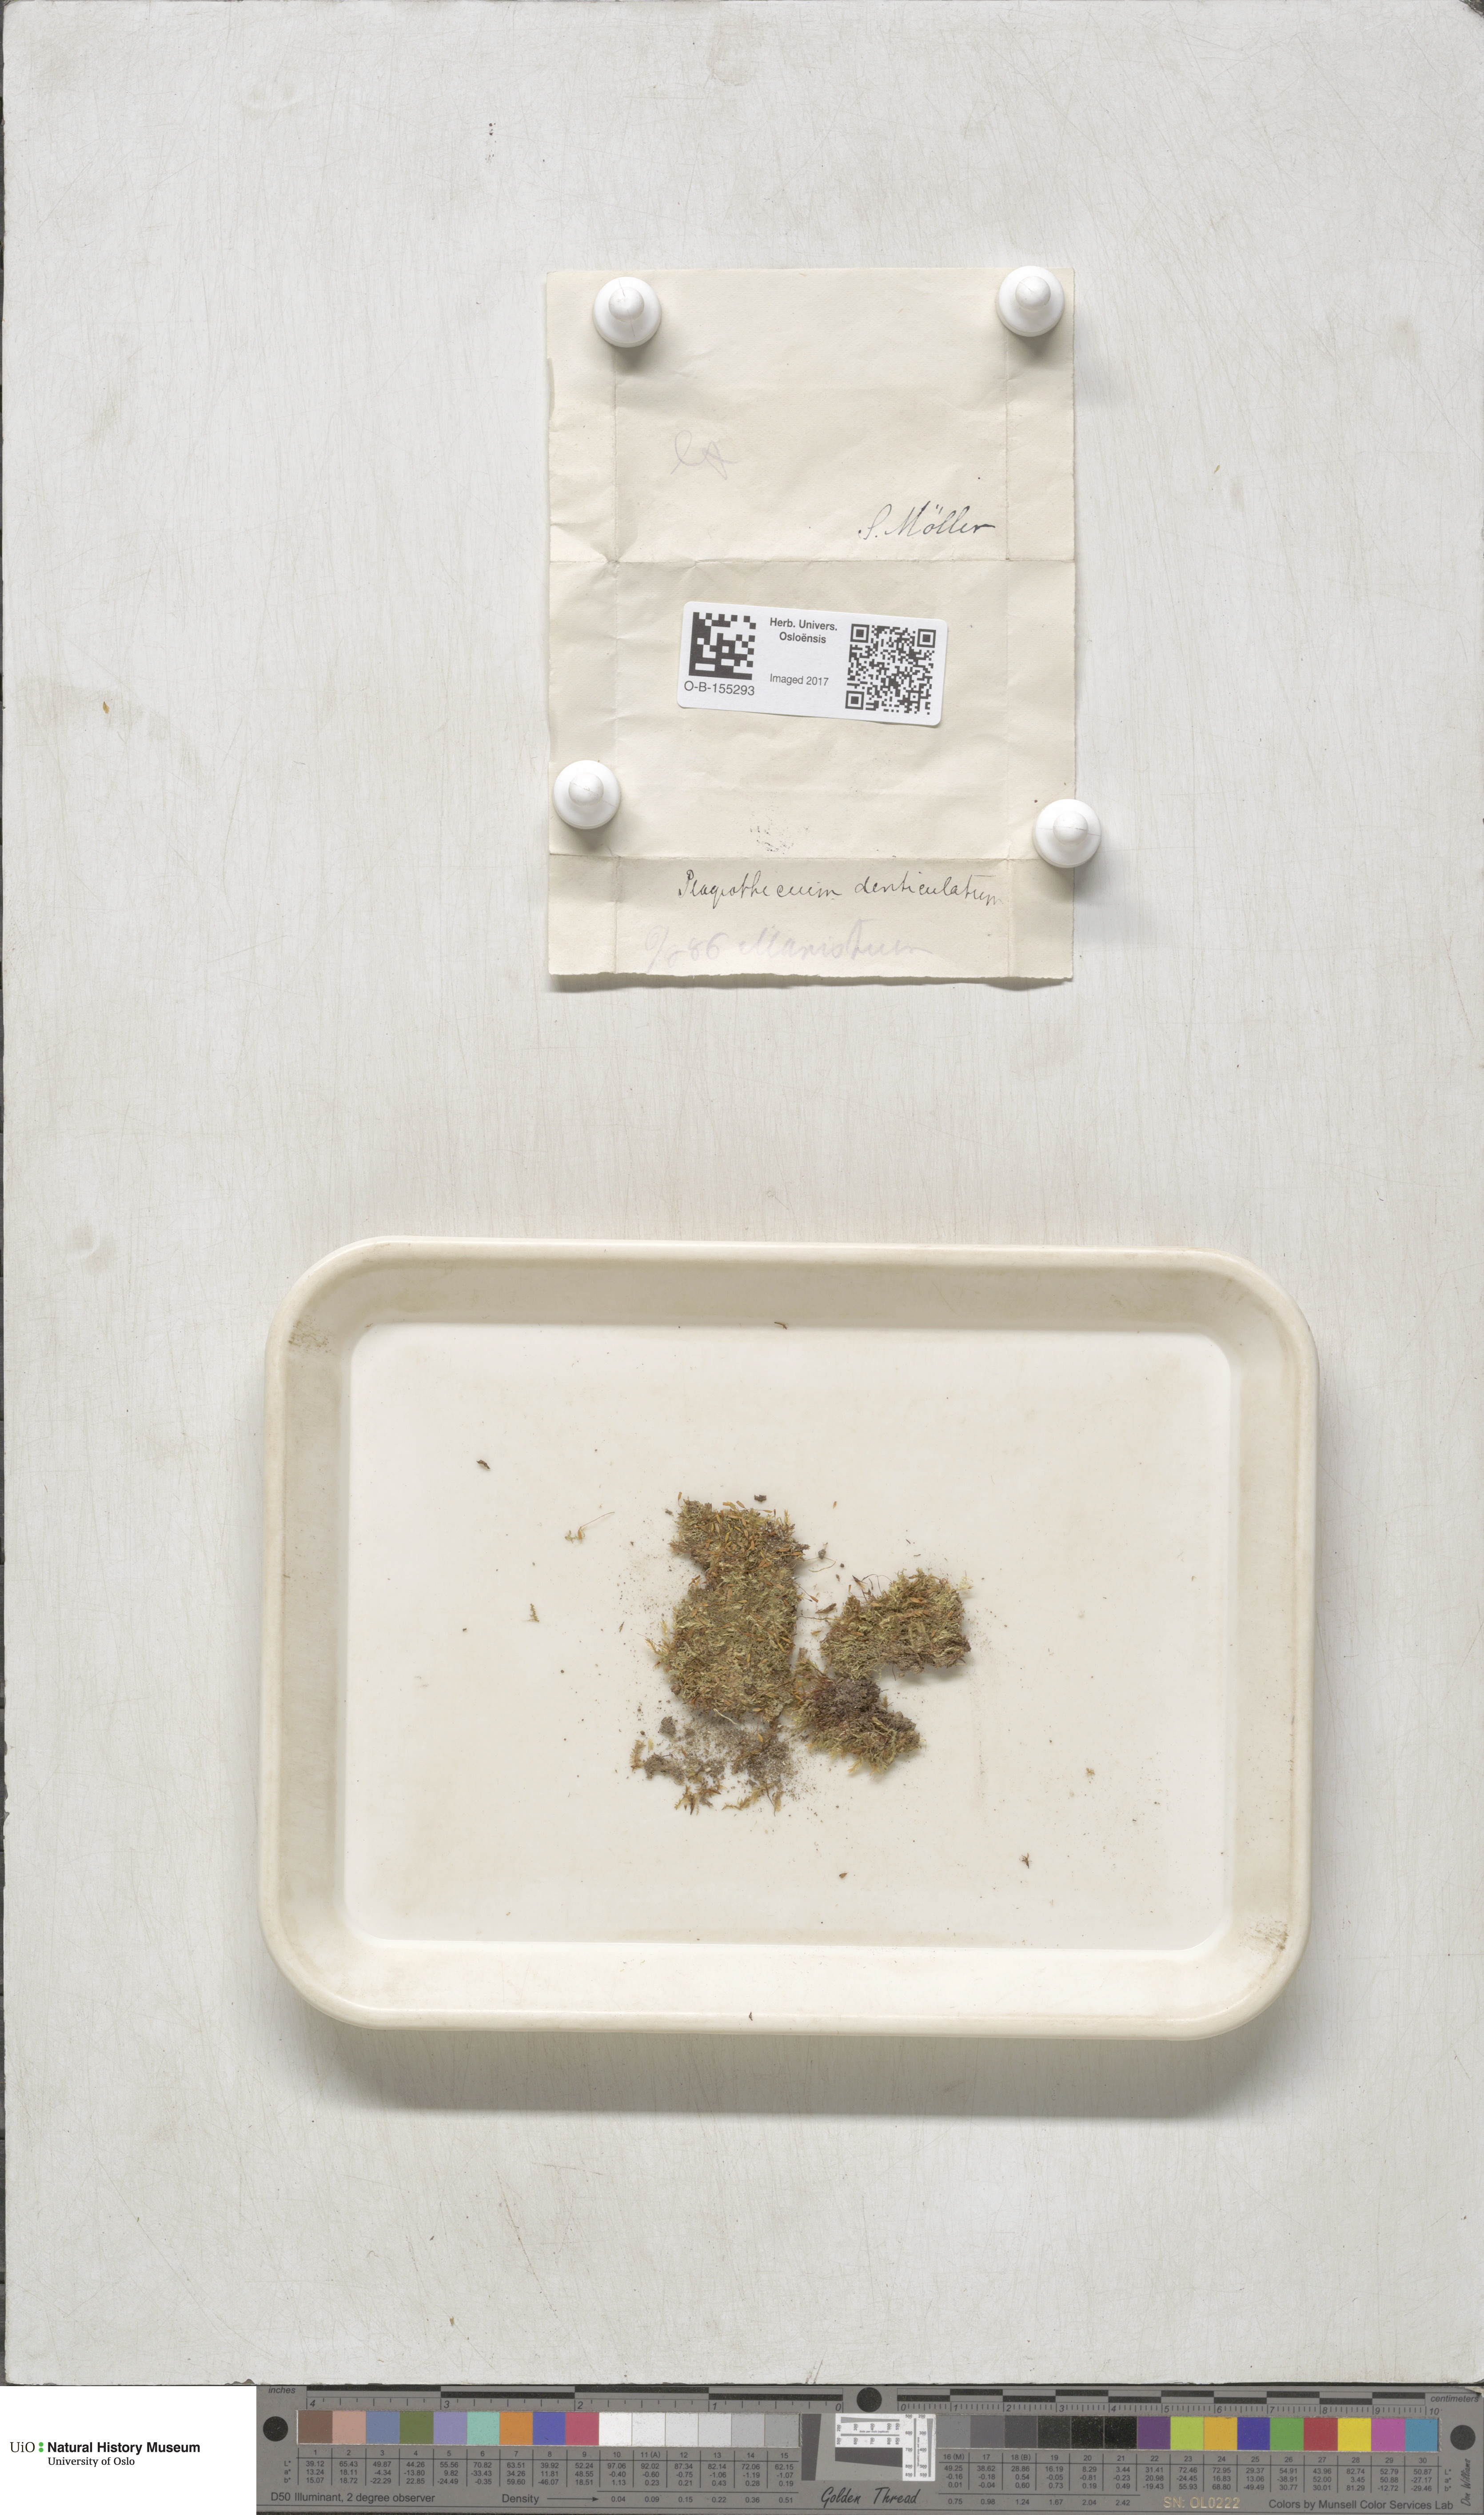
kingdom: Plantae
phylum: Bryophyta
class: Bryopsida
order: Hypnales
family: Plagiotheciaceae
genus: Plagiothecium
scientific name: Plagiothecium denticulatum
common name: Dented silk moss
